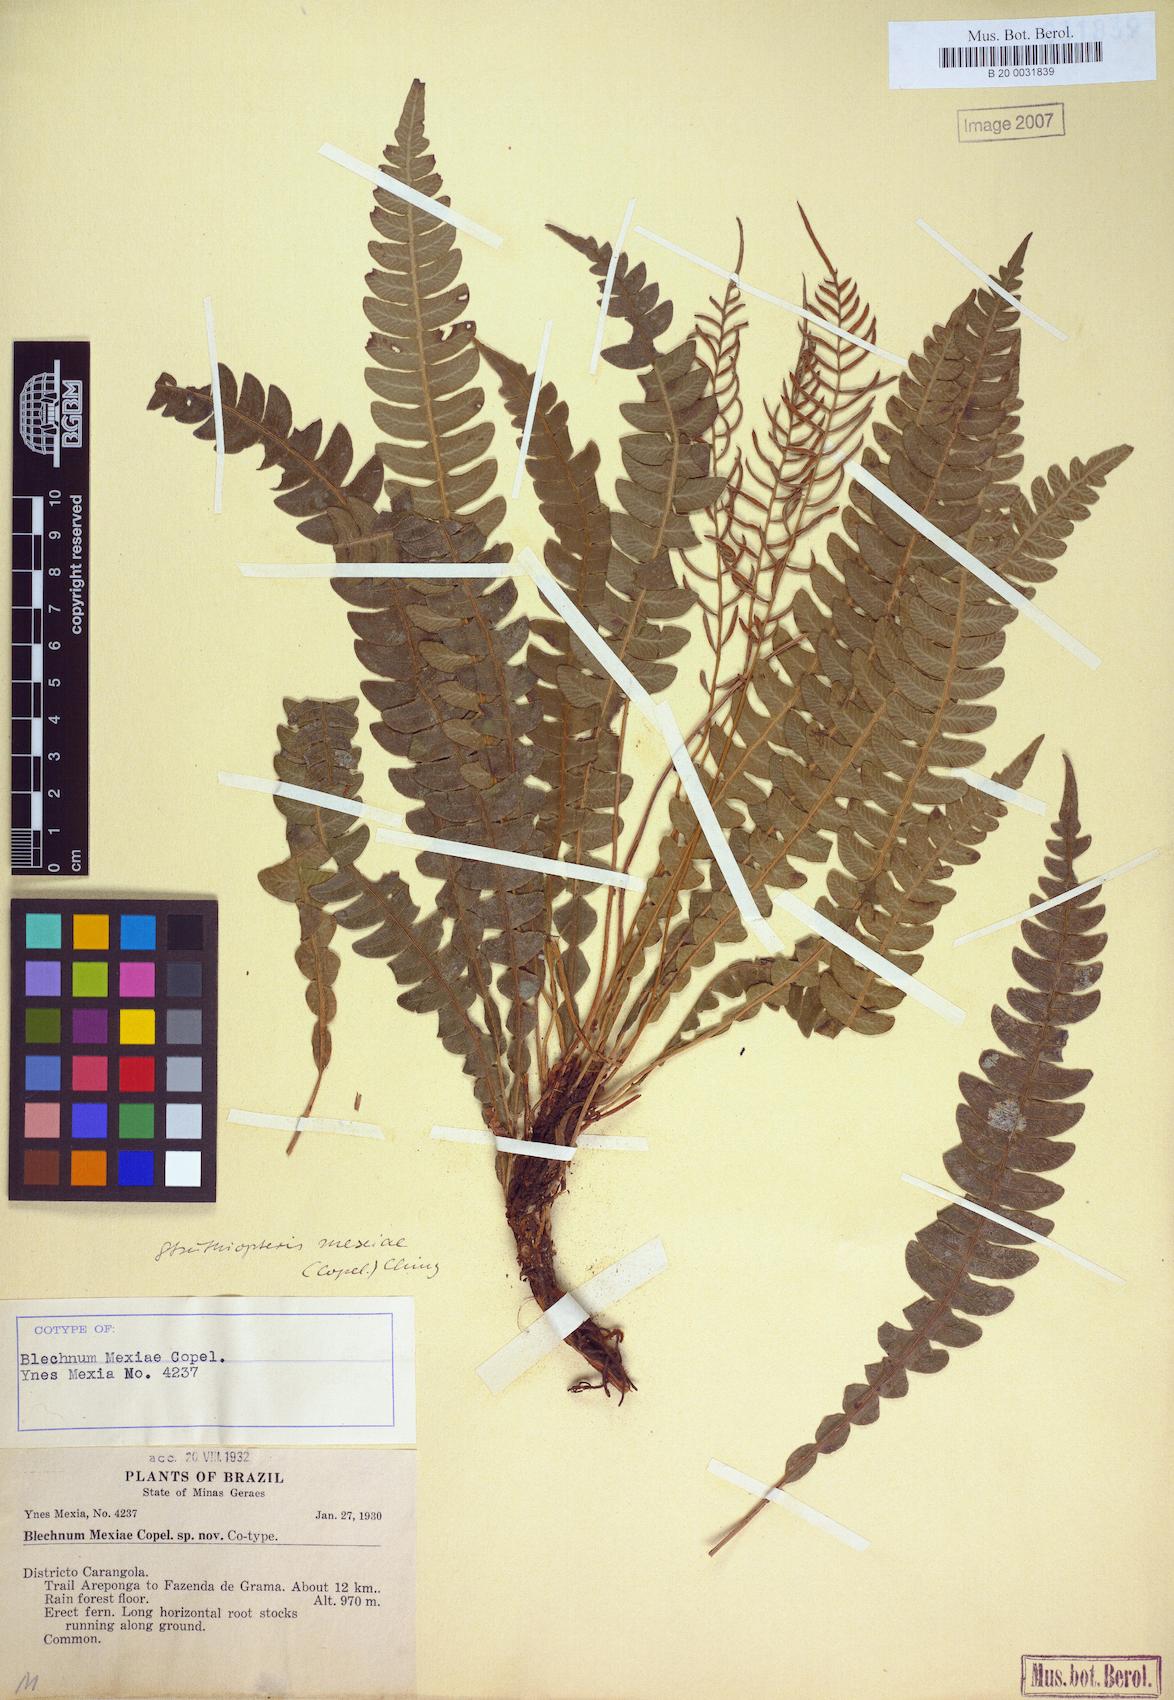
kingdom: Plantae
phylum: Tracheophyta
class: Polypodiopsida
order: Polypodiales
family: Blechnaceae
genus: Austroblechnum
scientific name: Austroblechnum lehmannii
